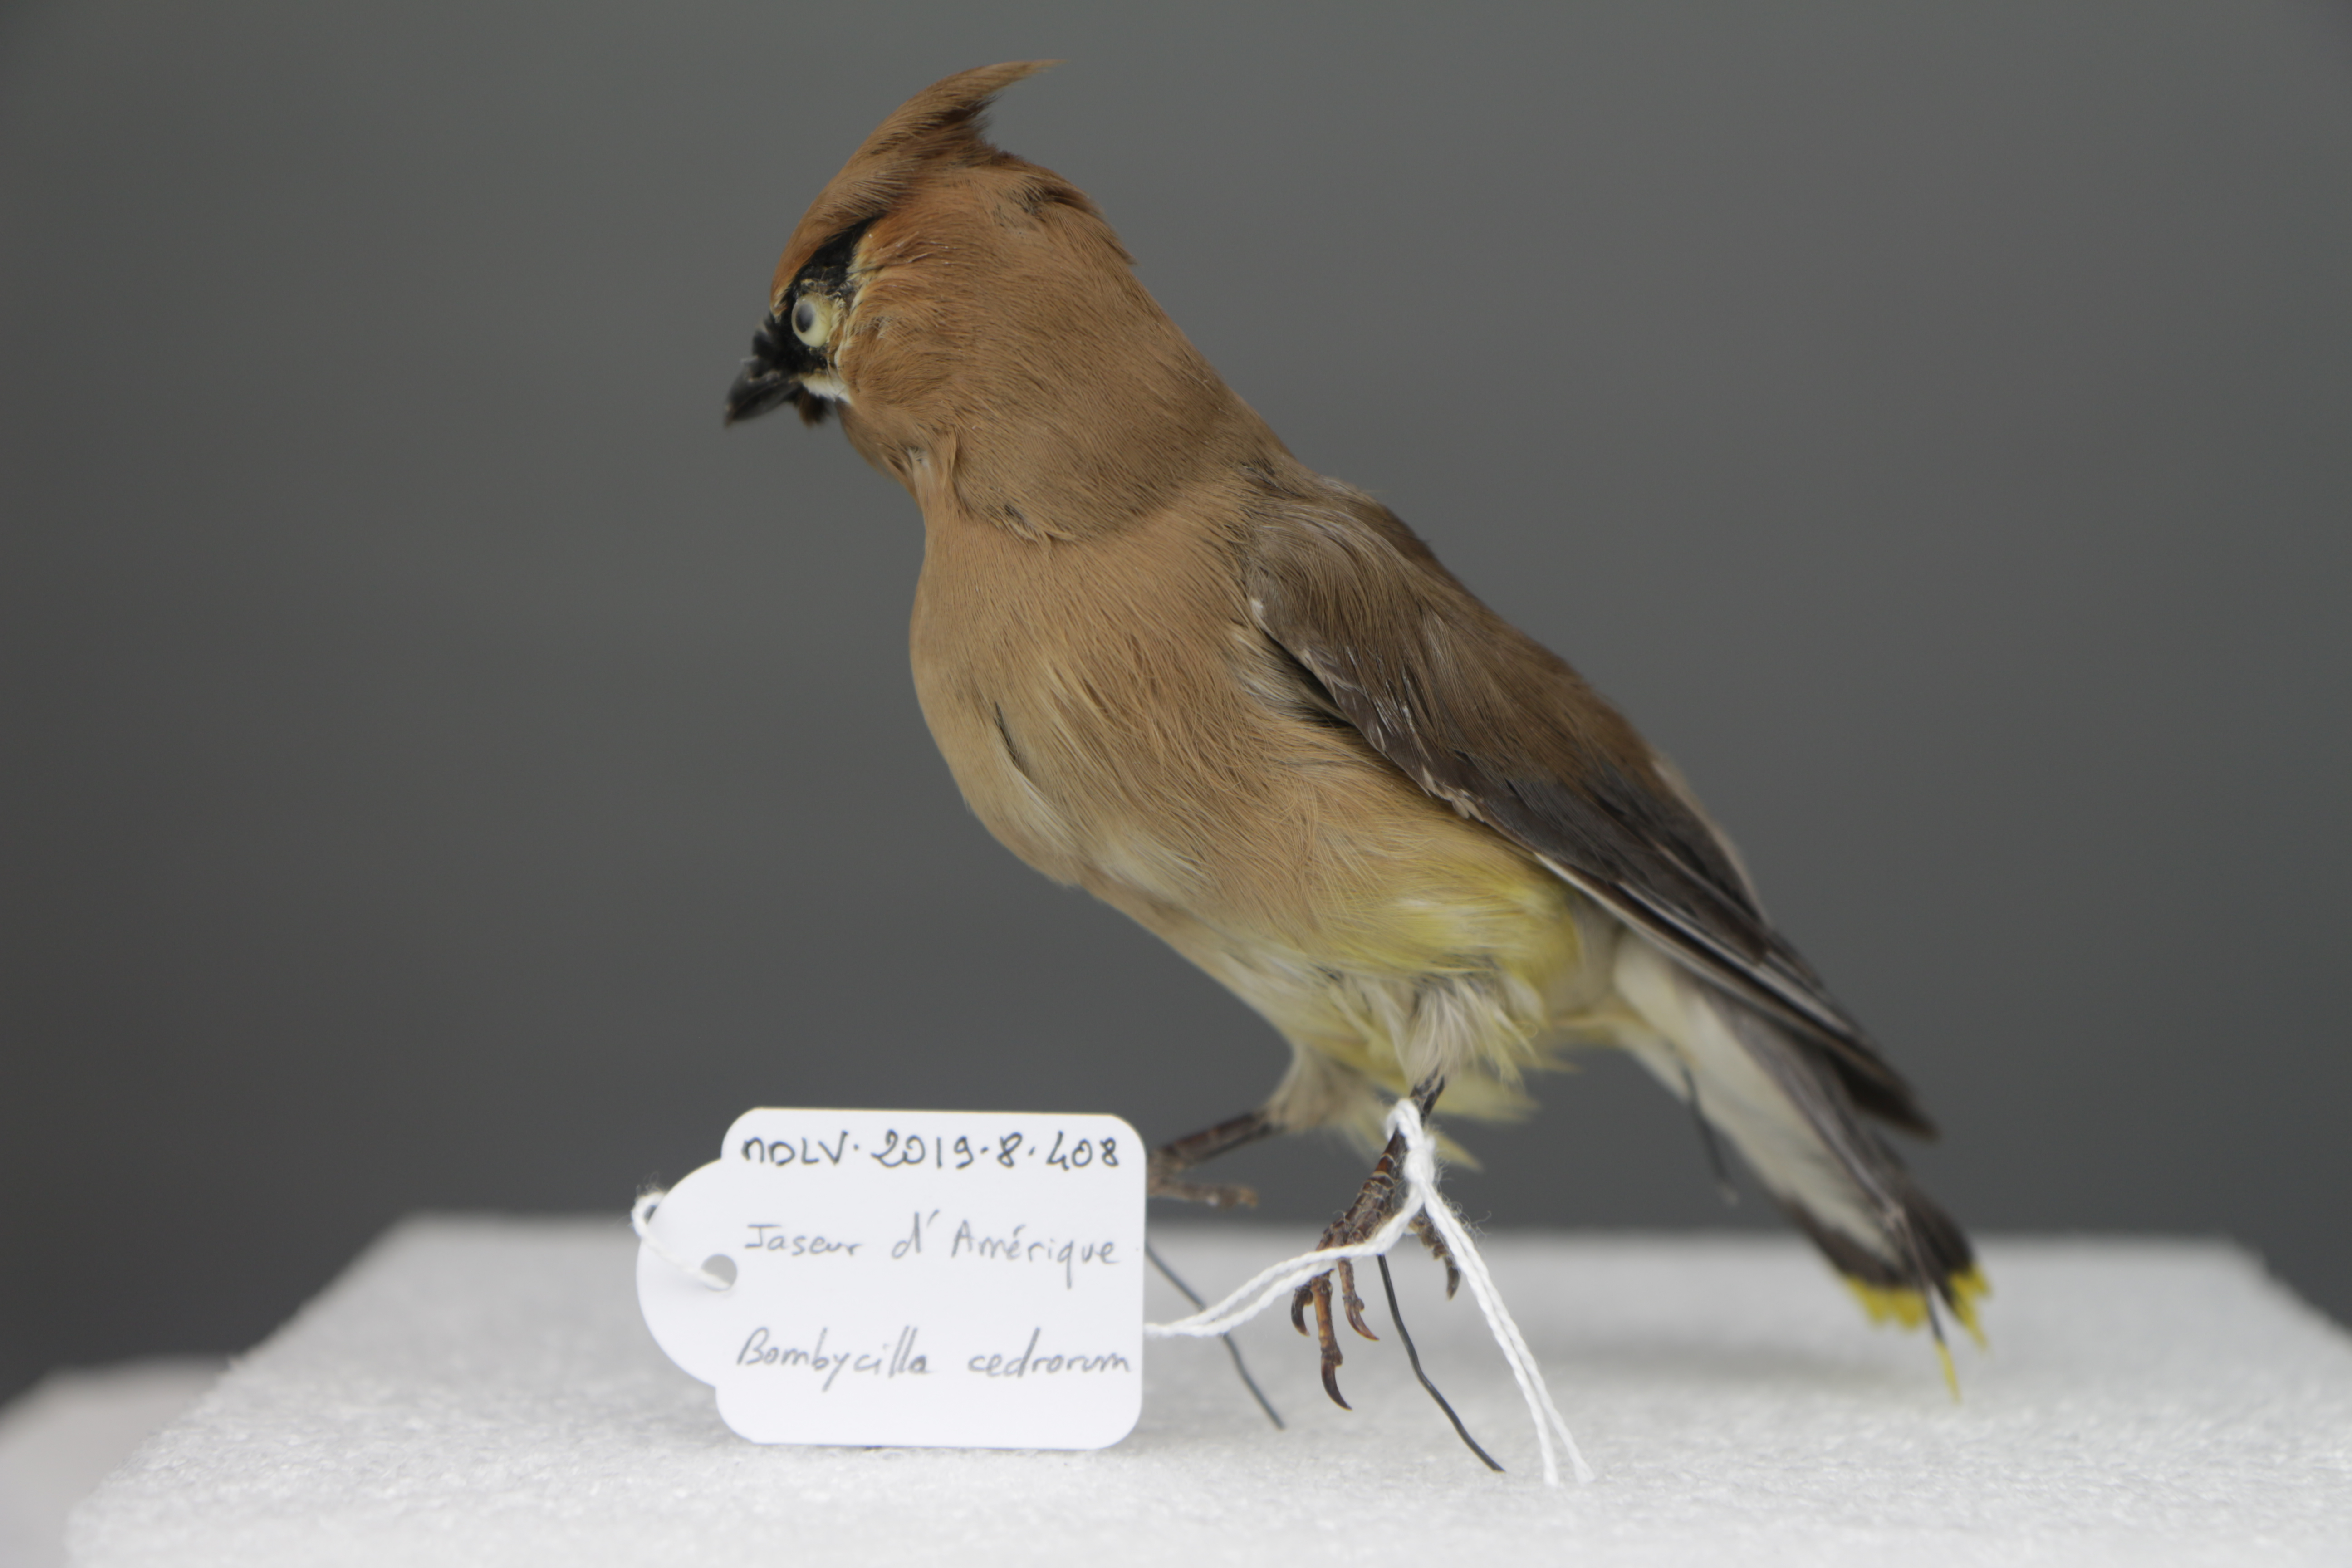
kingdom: Animalia
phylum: Chordata
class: Aves
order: Passeriformes
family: Bombycillidae
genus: Bombycilla
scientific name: Bombycilla cedrorum
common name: Cedar waxwing
